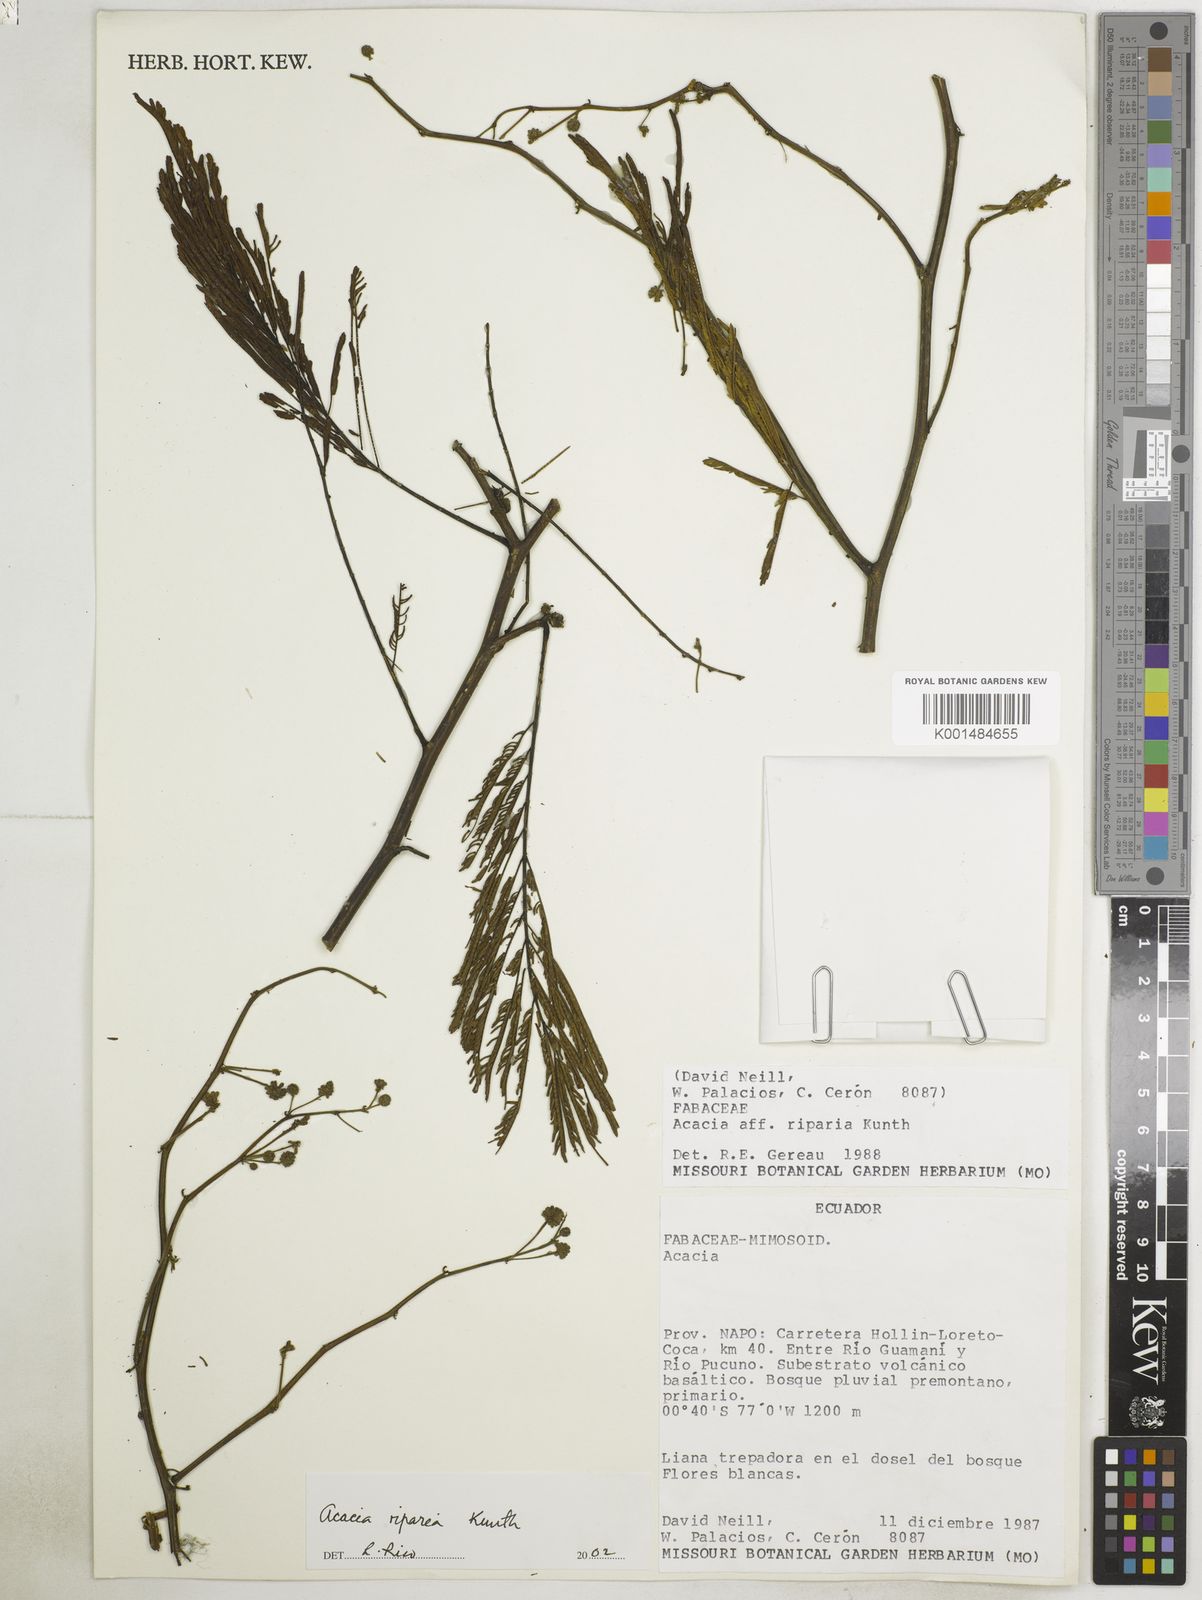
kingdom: Plantae
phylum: Tracheophyta
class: Magnoliopsida
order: Fabales
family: Fabaceae
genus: Senegalia
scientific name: Senegalia polyphylla
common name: White-tamarind
